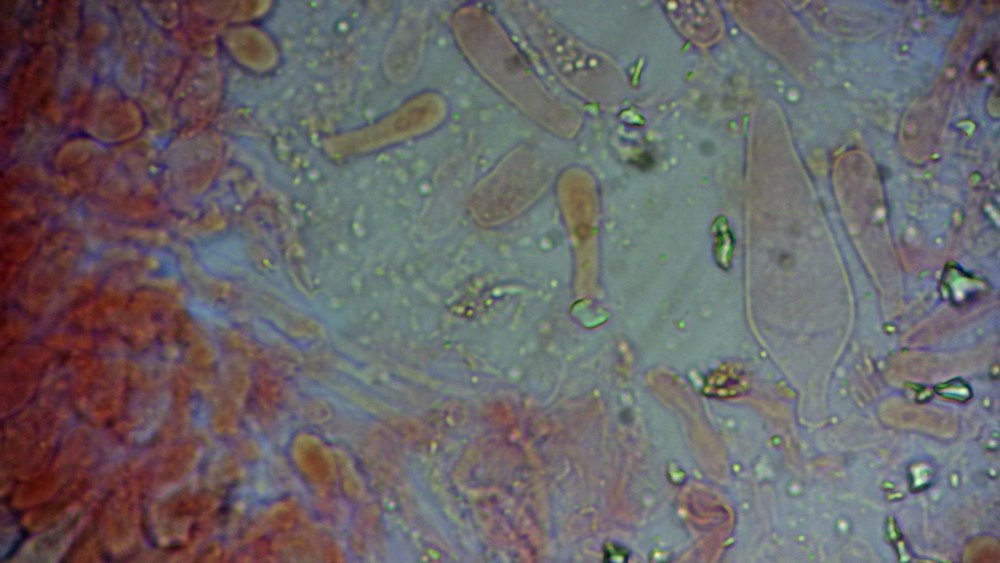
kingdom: Fungi
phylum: Basidiomycota
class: Agaricomycetes
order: Agaricales
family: Strophariaceae
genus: Pholiota
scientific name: Pholiota carbonaria
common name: kul-skælhat
